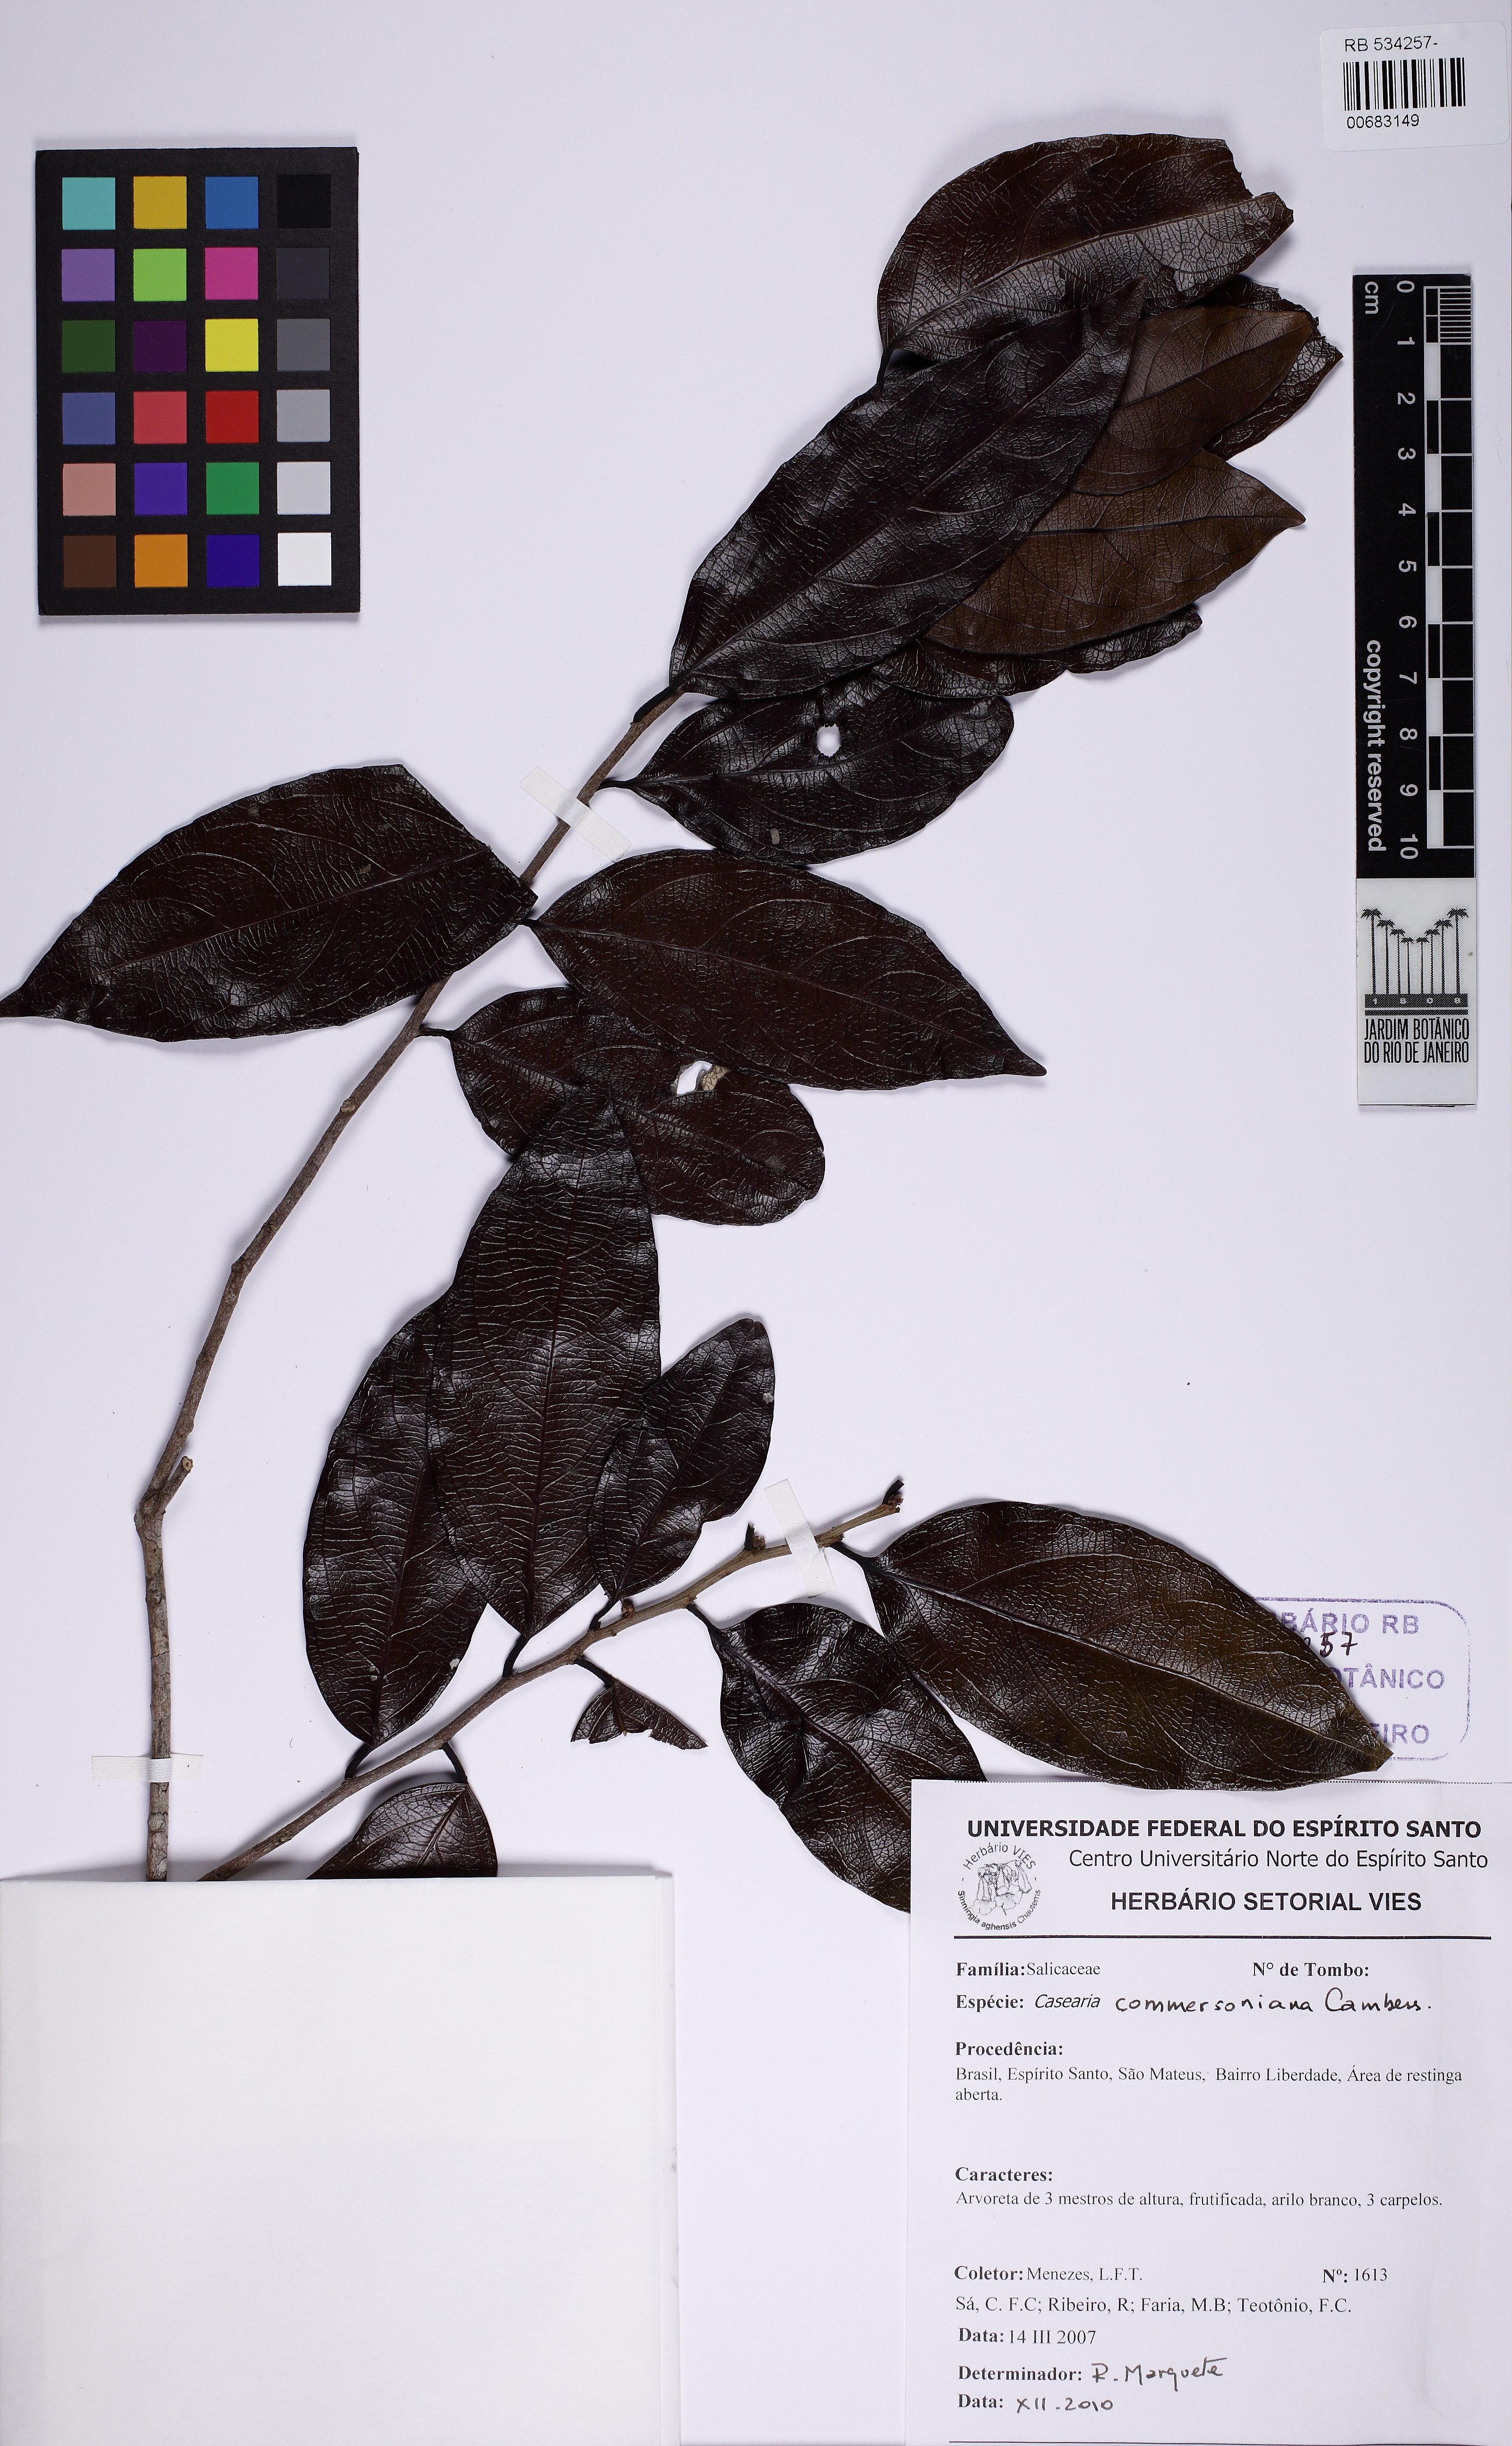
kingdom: Plantae
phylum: Tracheophyta
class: Magnoliopsida
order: Malpighiales
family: Salicaceae
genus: Piparea
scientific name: Piparea dentata
